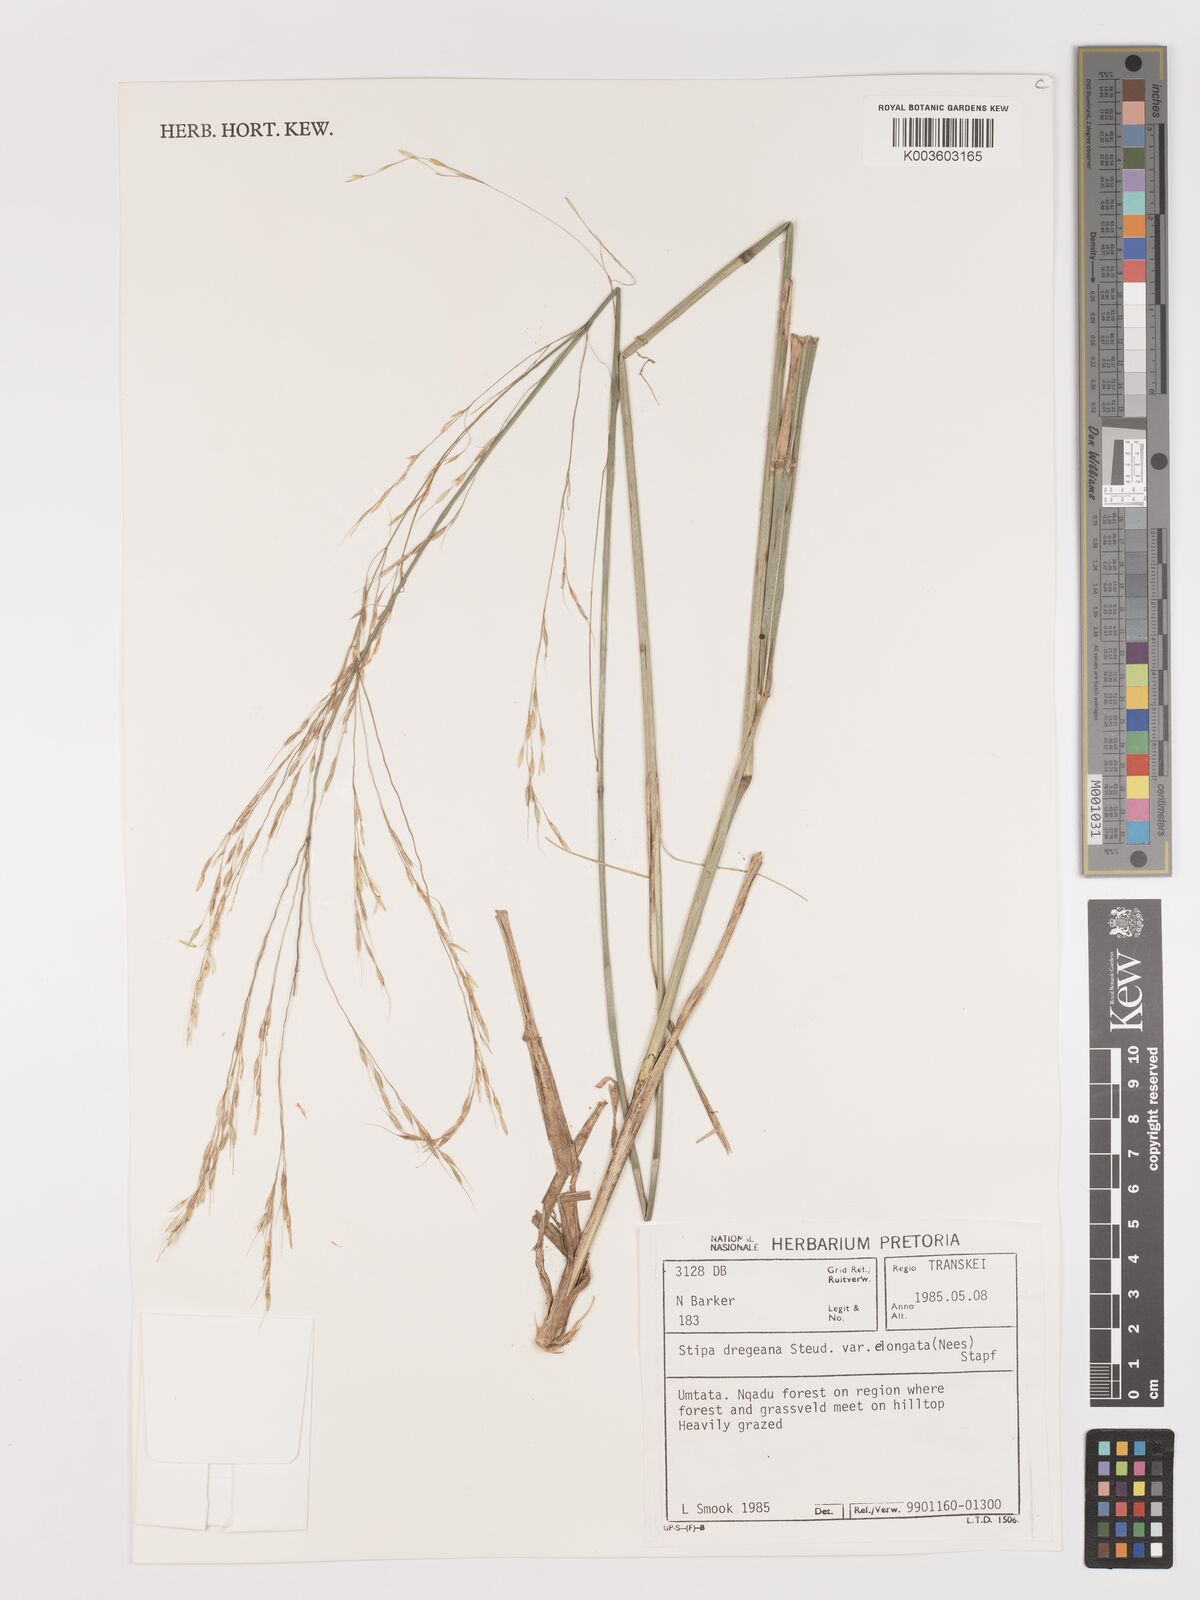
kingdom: Plantae
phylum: Tracheophyta
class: Liliopsida
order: Poales
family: Poaceae
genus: Stipa
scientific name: Stipa dregeana
